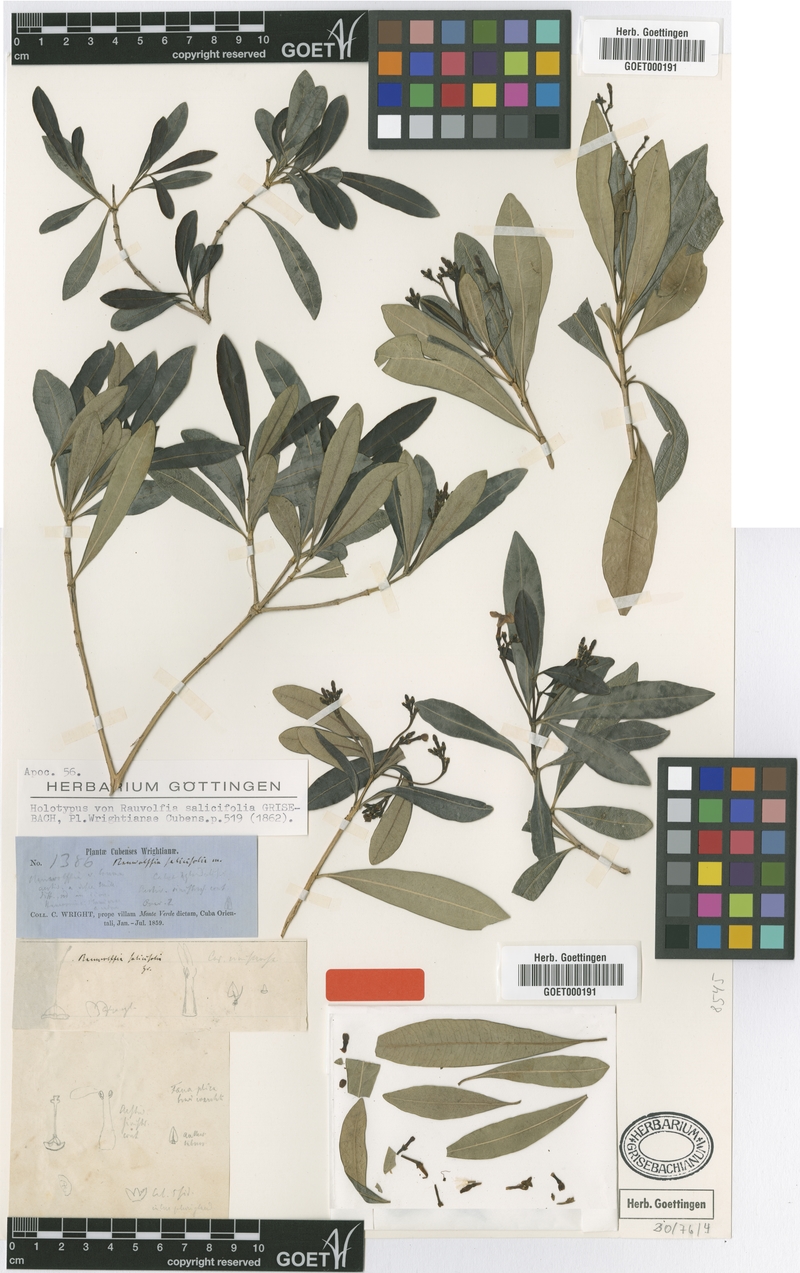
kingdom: Plantae
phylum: Tracheophyta
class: Magnoliopsida
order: Gentianales
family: Apocynaceae
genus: Rauvolfia
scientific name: Rauvolfia salicifolia
